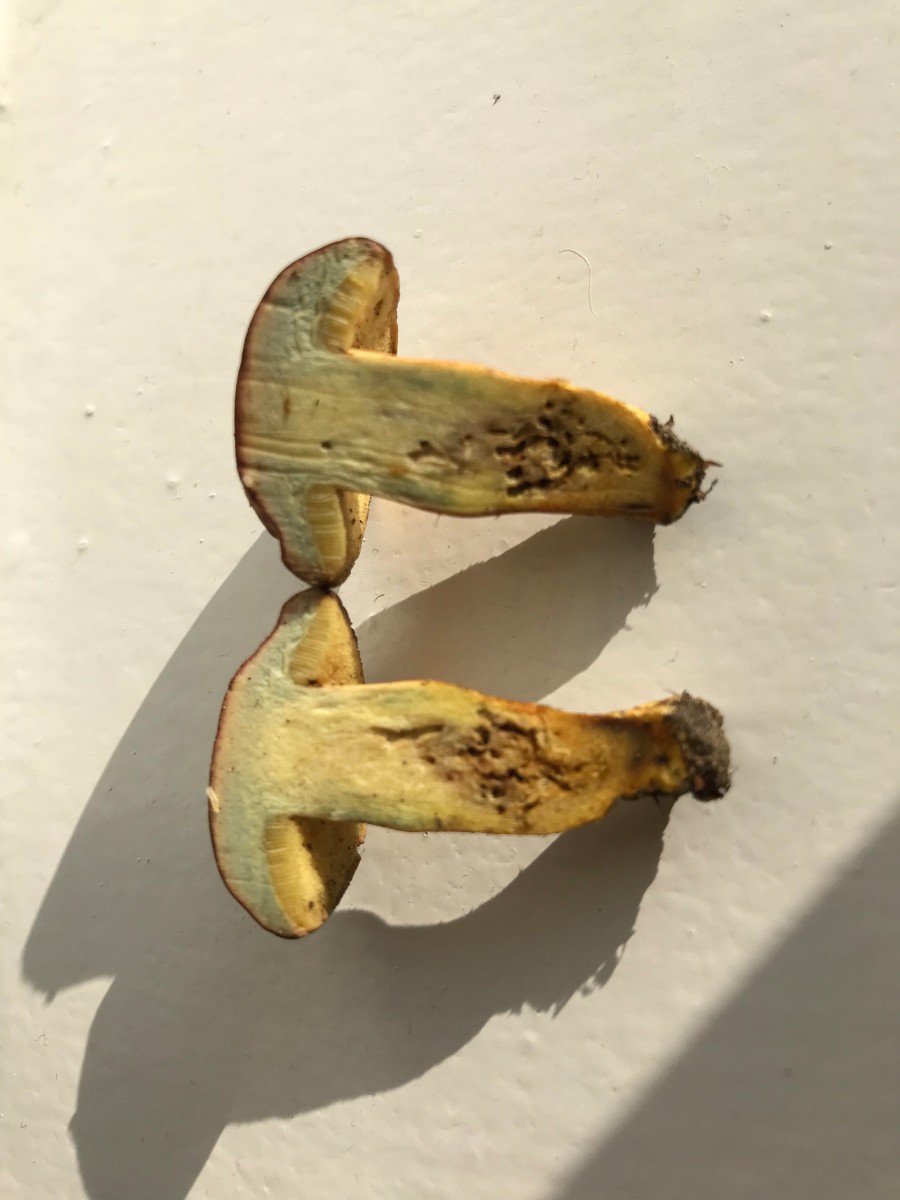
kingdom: Fungi
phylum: Basidiomycota
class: Agaricomycetes
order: Boletales
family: Boletaceae
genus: Hortiboletus
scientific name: Hortiboletus bubalinus
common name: aurora-rørhat
